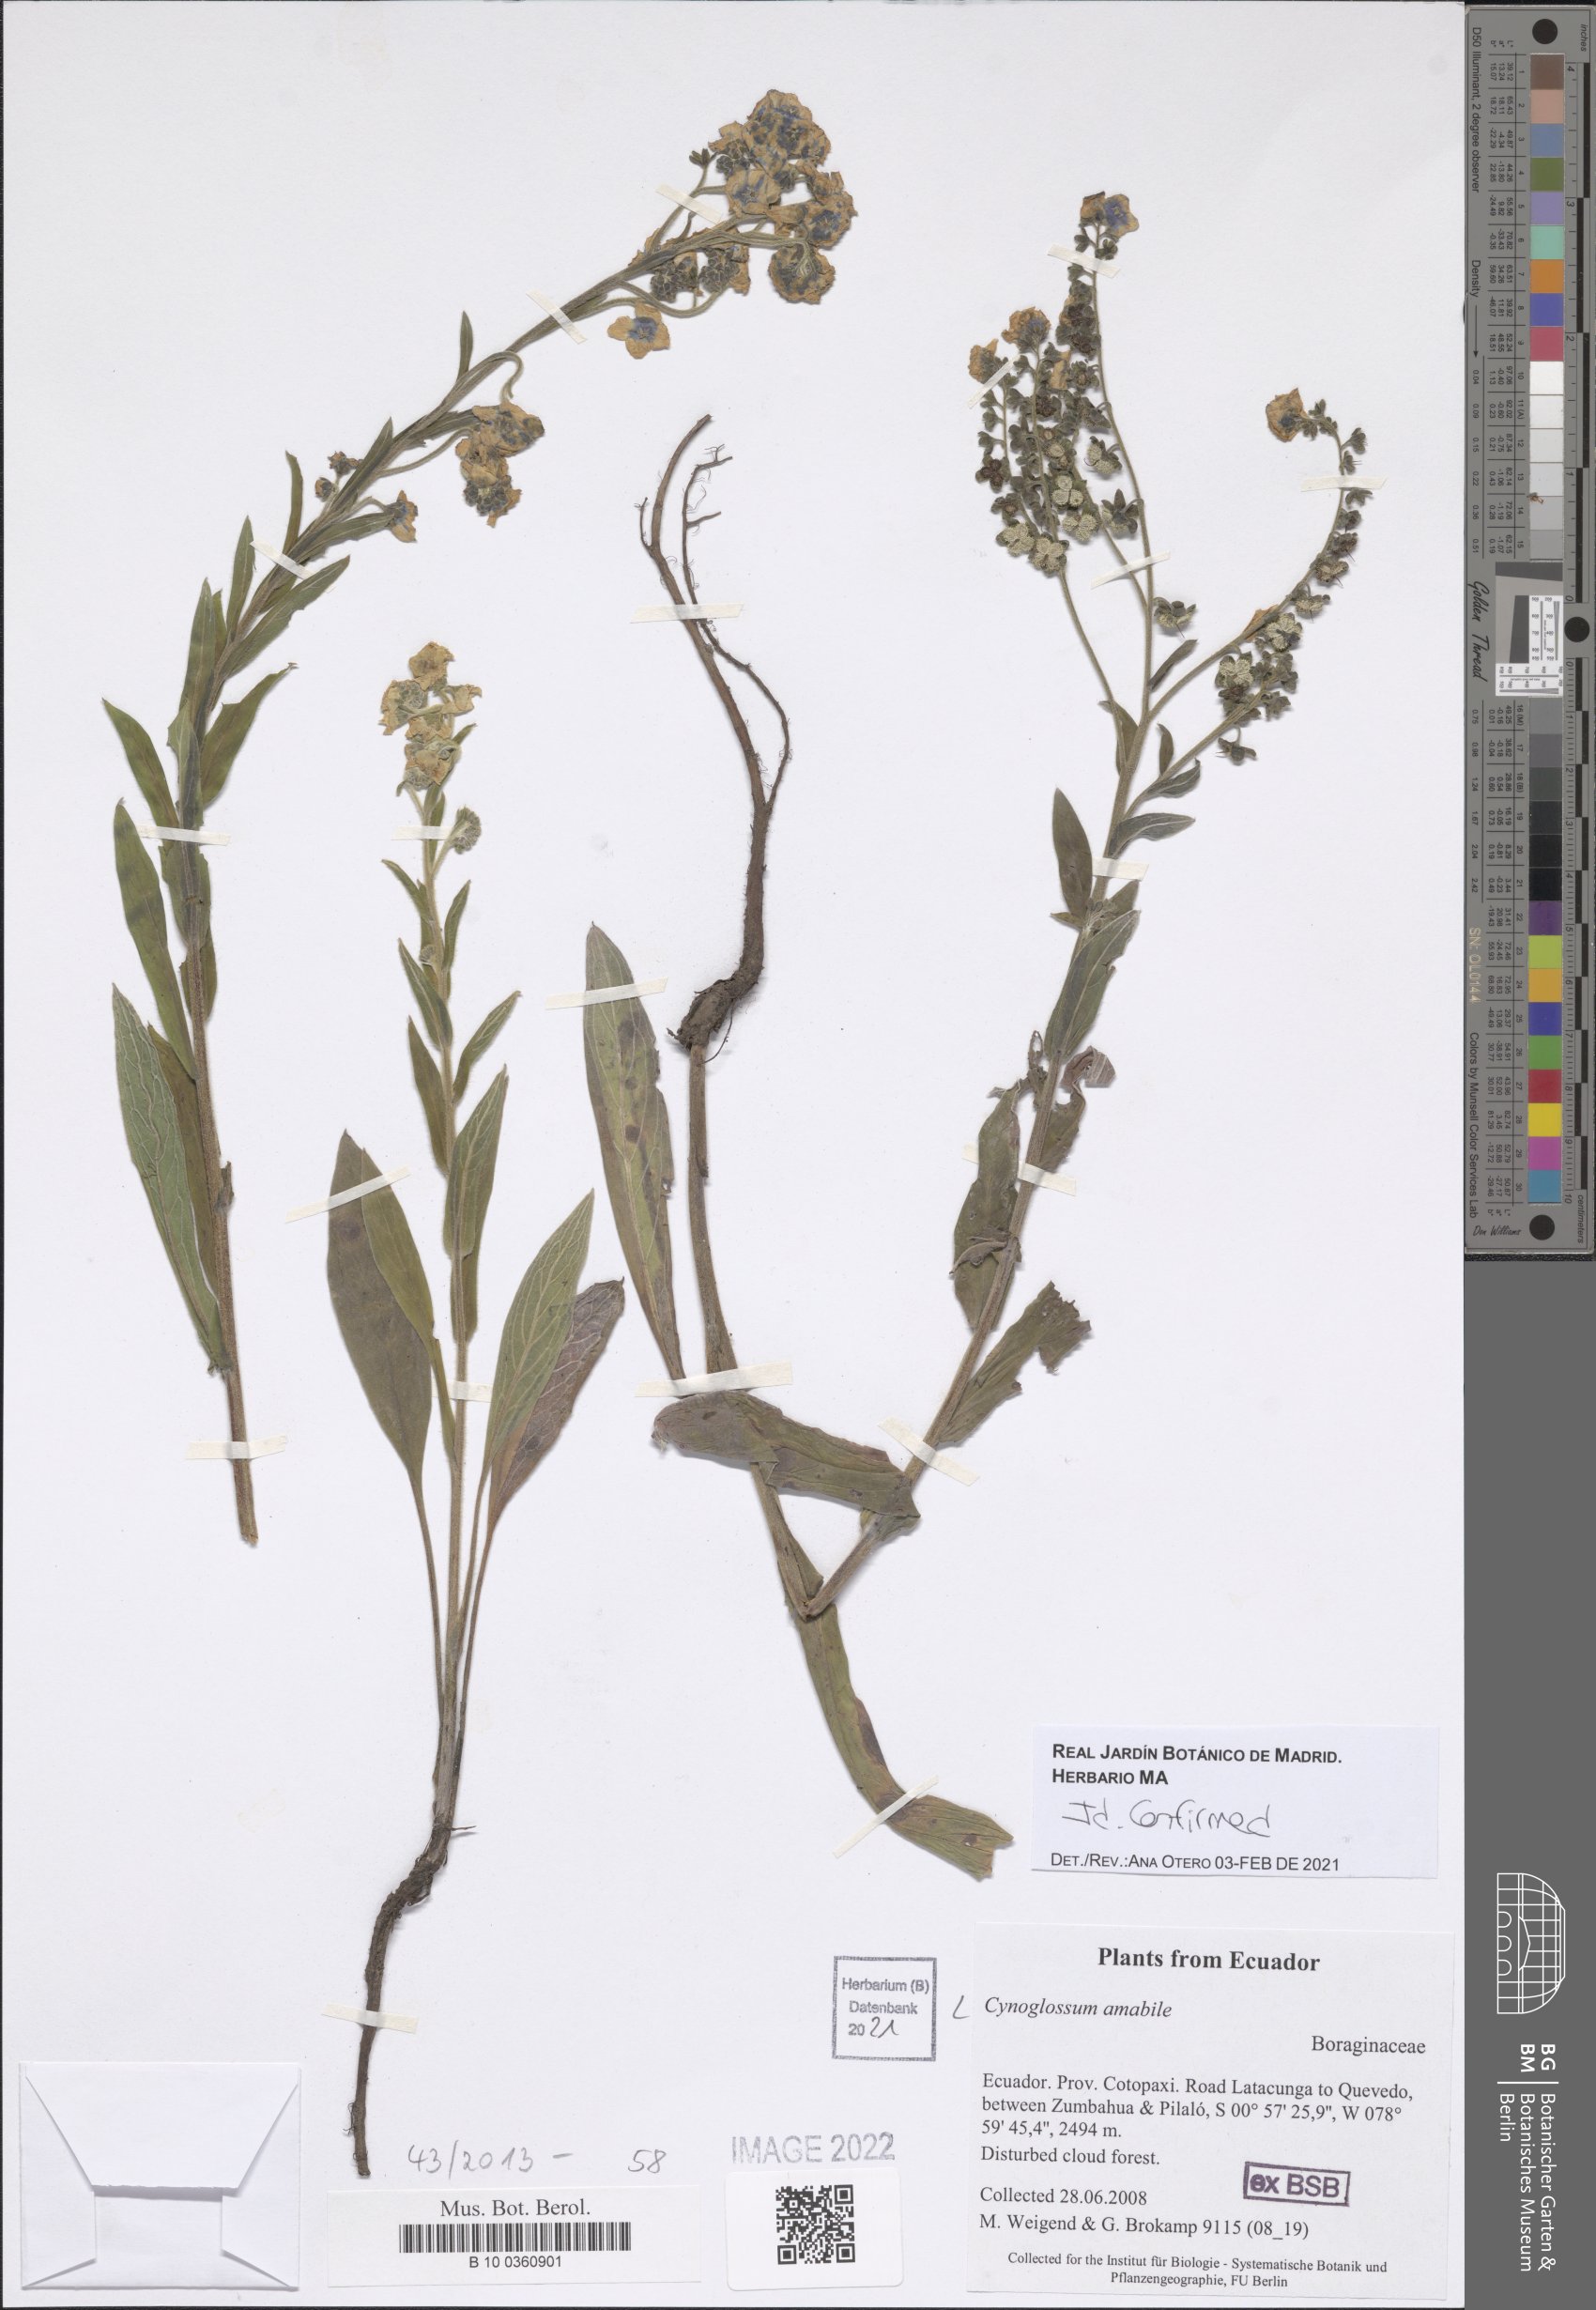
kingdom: Plantae
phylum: Tracheophyta
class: Magnoliopsida
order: Boraginales
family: Boraginaceae
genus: Cynoglossum
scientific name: Cynoglossum amabile
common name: Chinese hound's tongue
